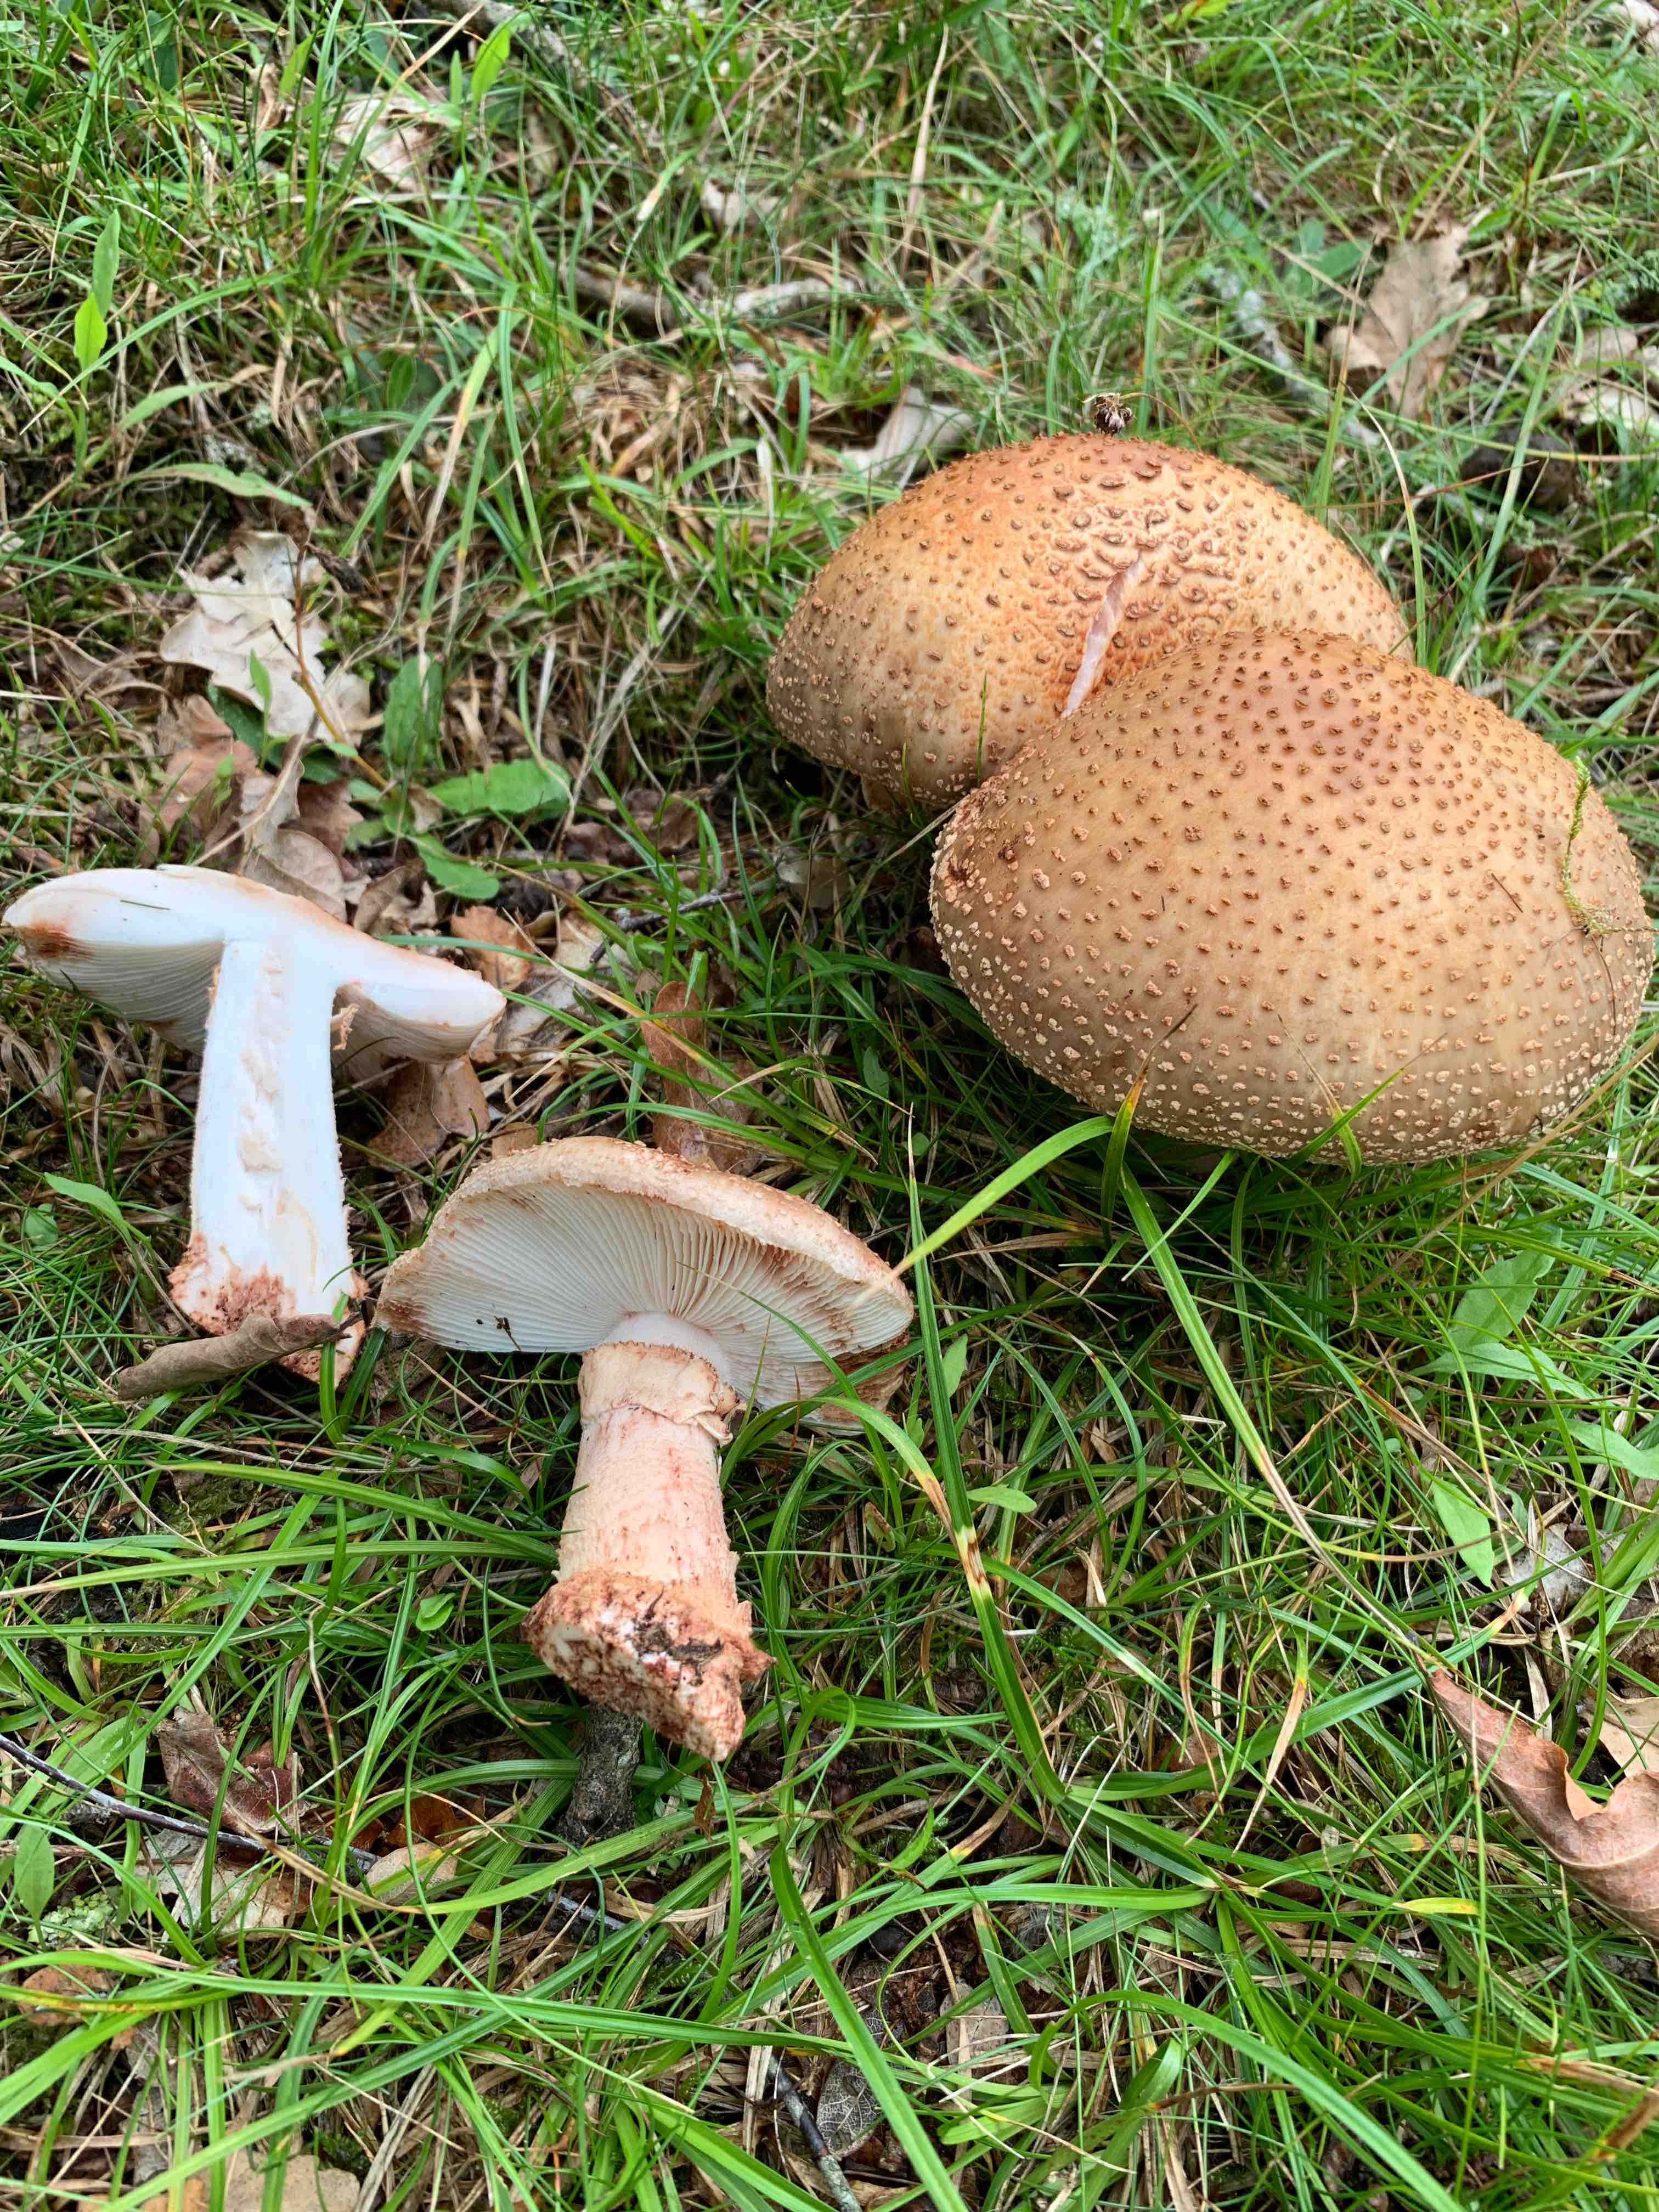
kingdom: Fungi
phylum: Basidiomycota
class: Agaricomycetes
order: Agaricales
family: Amanitaceae
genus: Amanita
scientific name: Amanita rubescens
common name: rødmende fluesvamp
